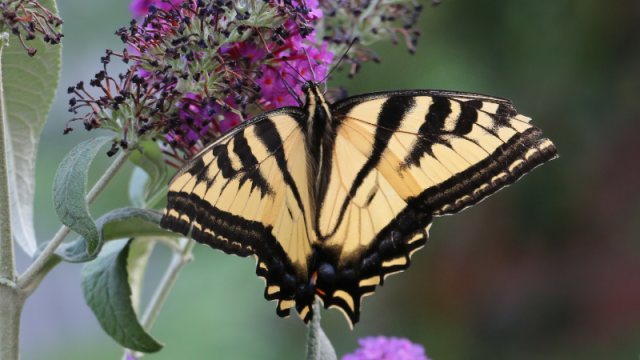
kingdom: Animalia
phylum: Arthropoda
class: Insecta
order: Lepidoptera
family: Papilionidae
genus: Pterourus
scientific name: Pterourus rutulus
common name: Western Tiger Swallowtail
